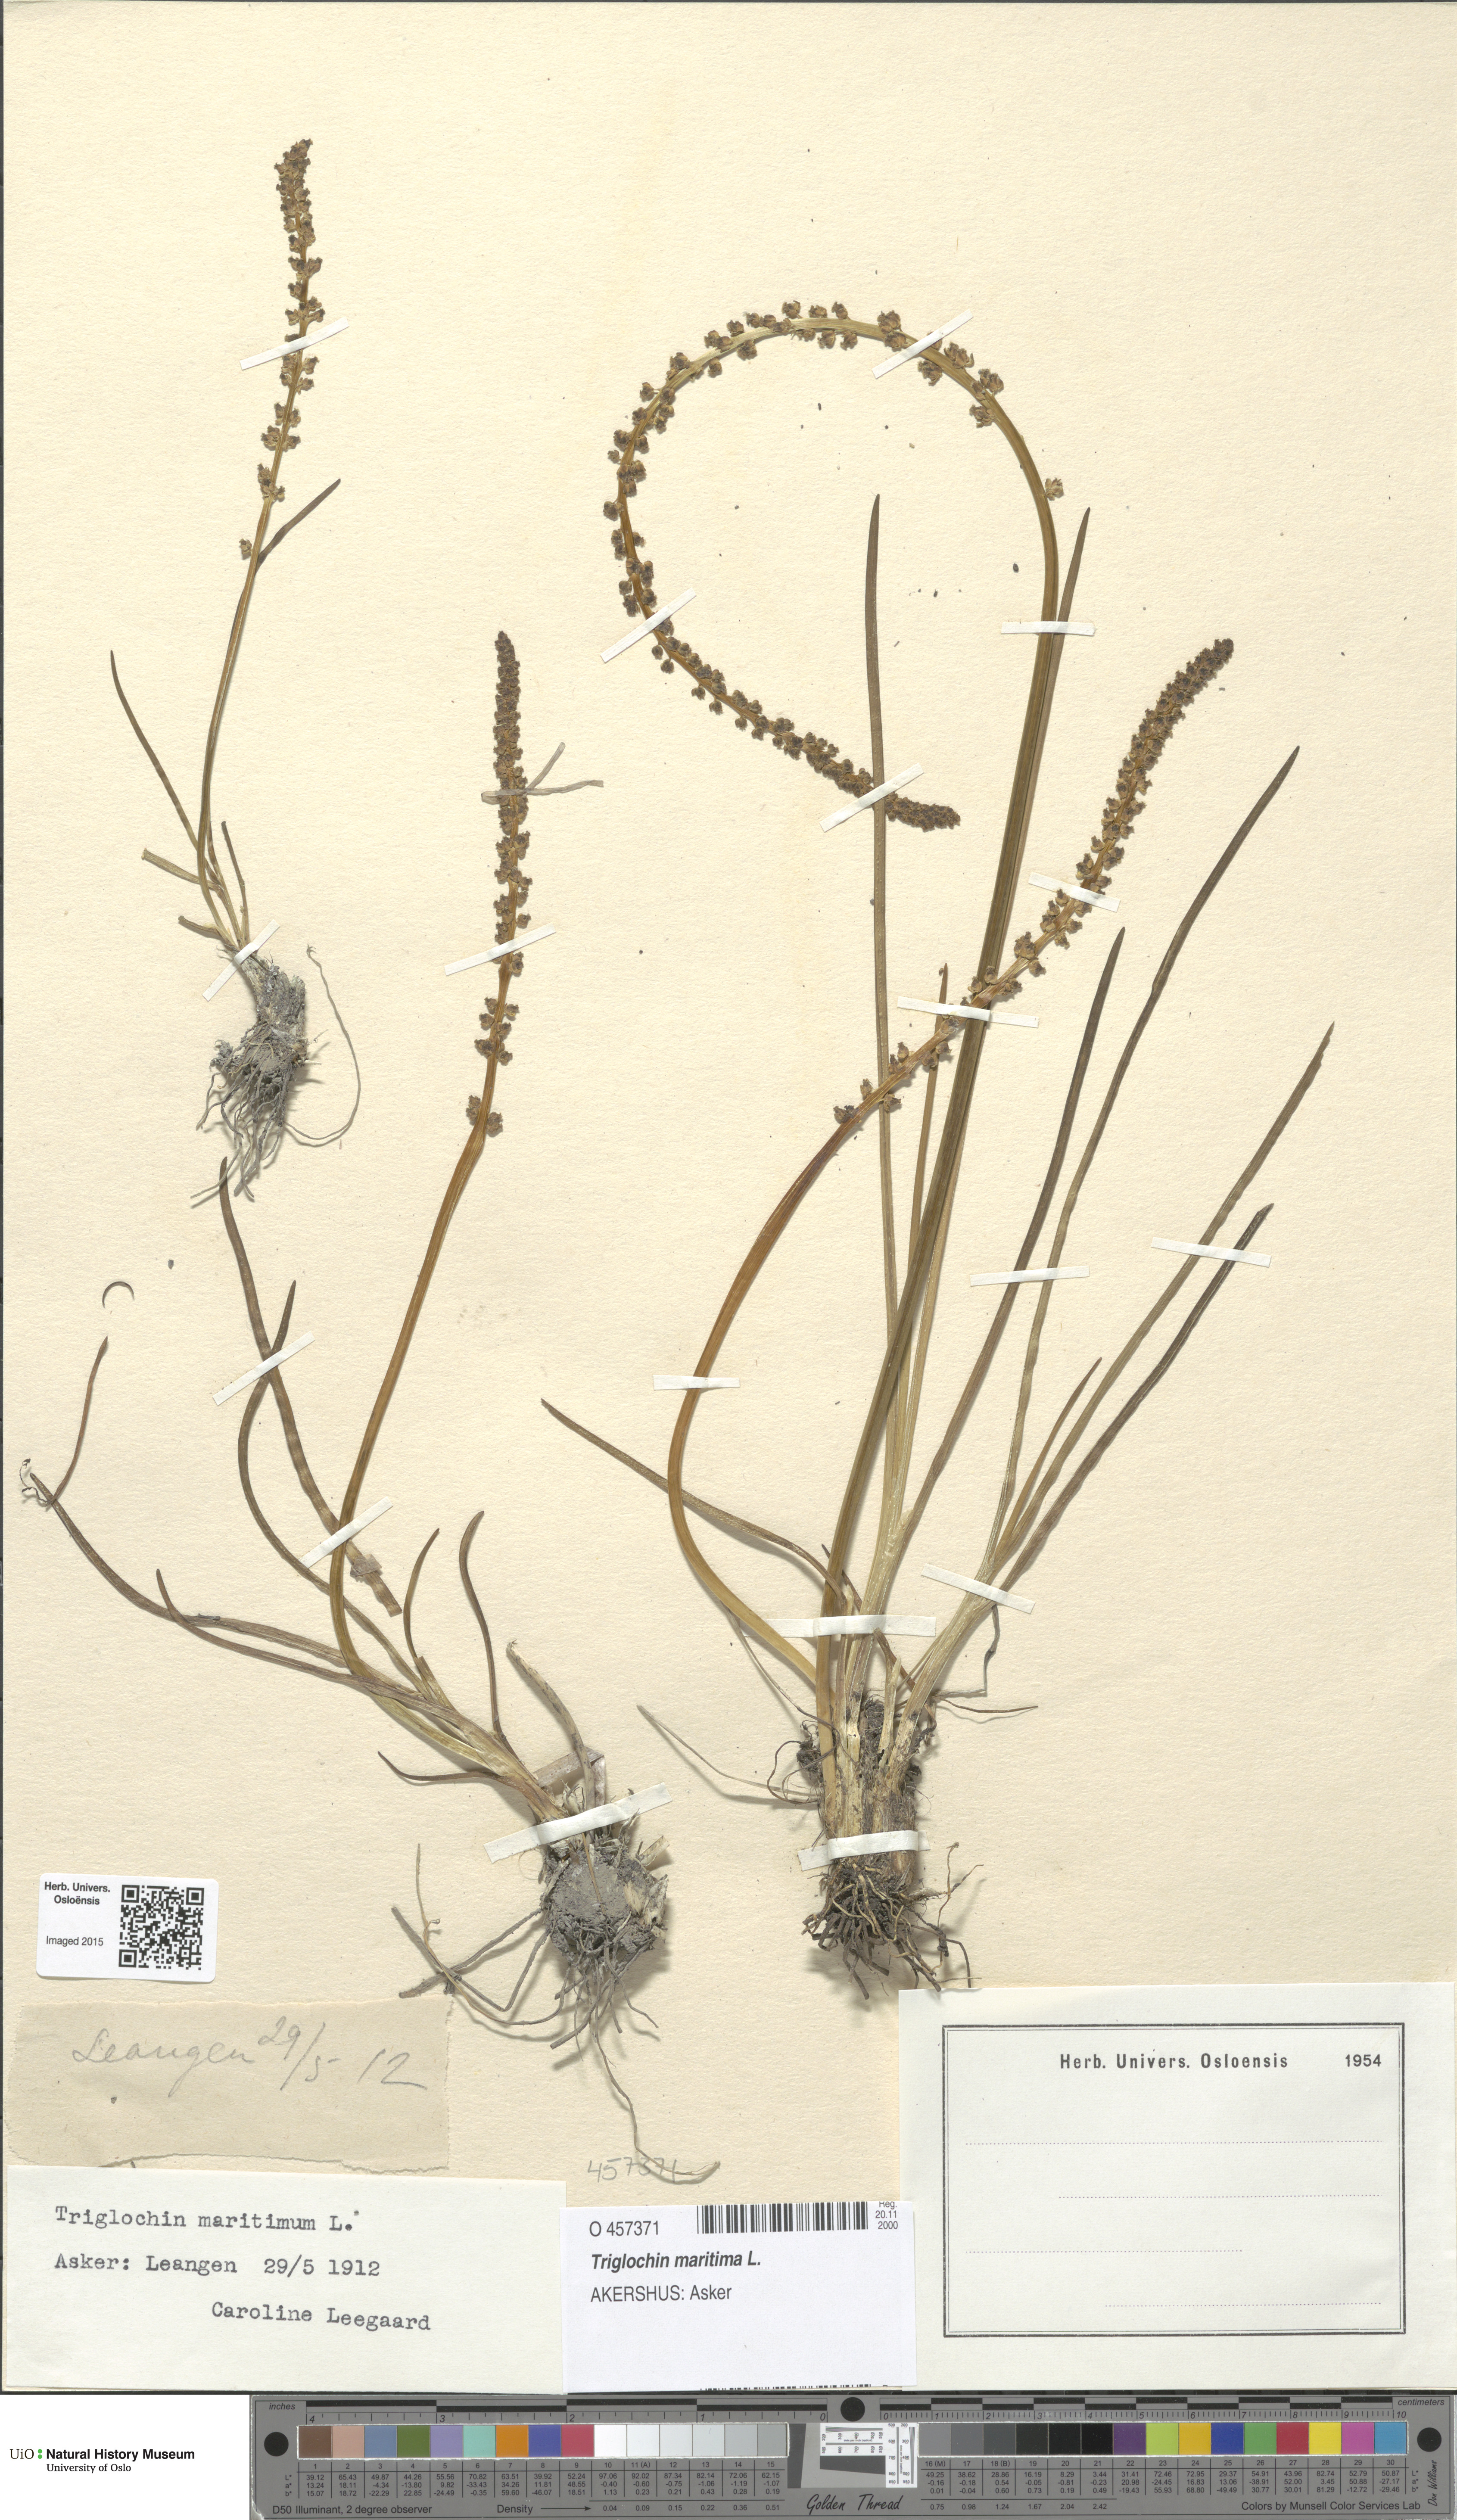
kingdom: Plantae
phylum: Tracheophyta
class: Liliopsida
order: Alismatales
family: Juncaginaceae
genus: Triglochin
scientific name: Triglochin maritima
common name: Sea arrowgrass
